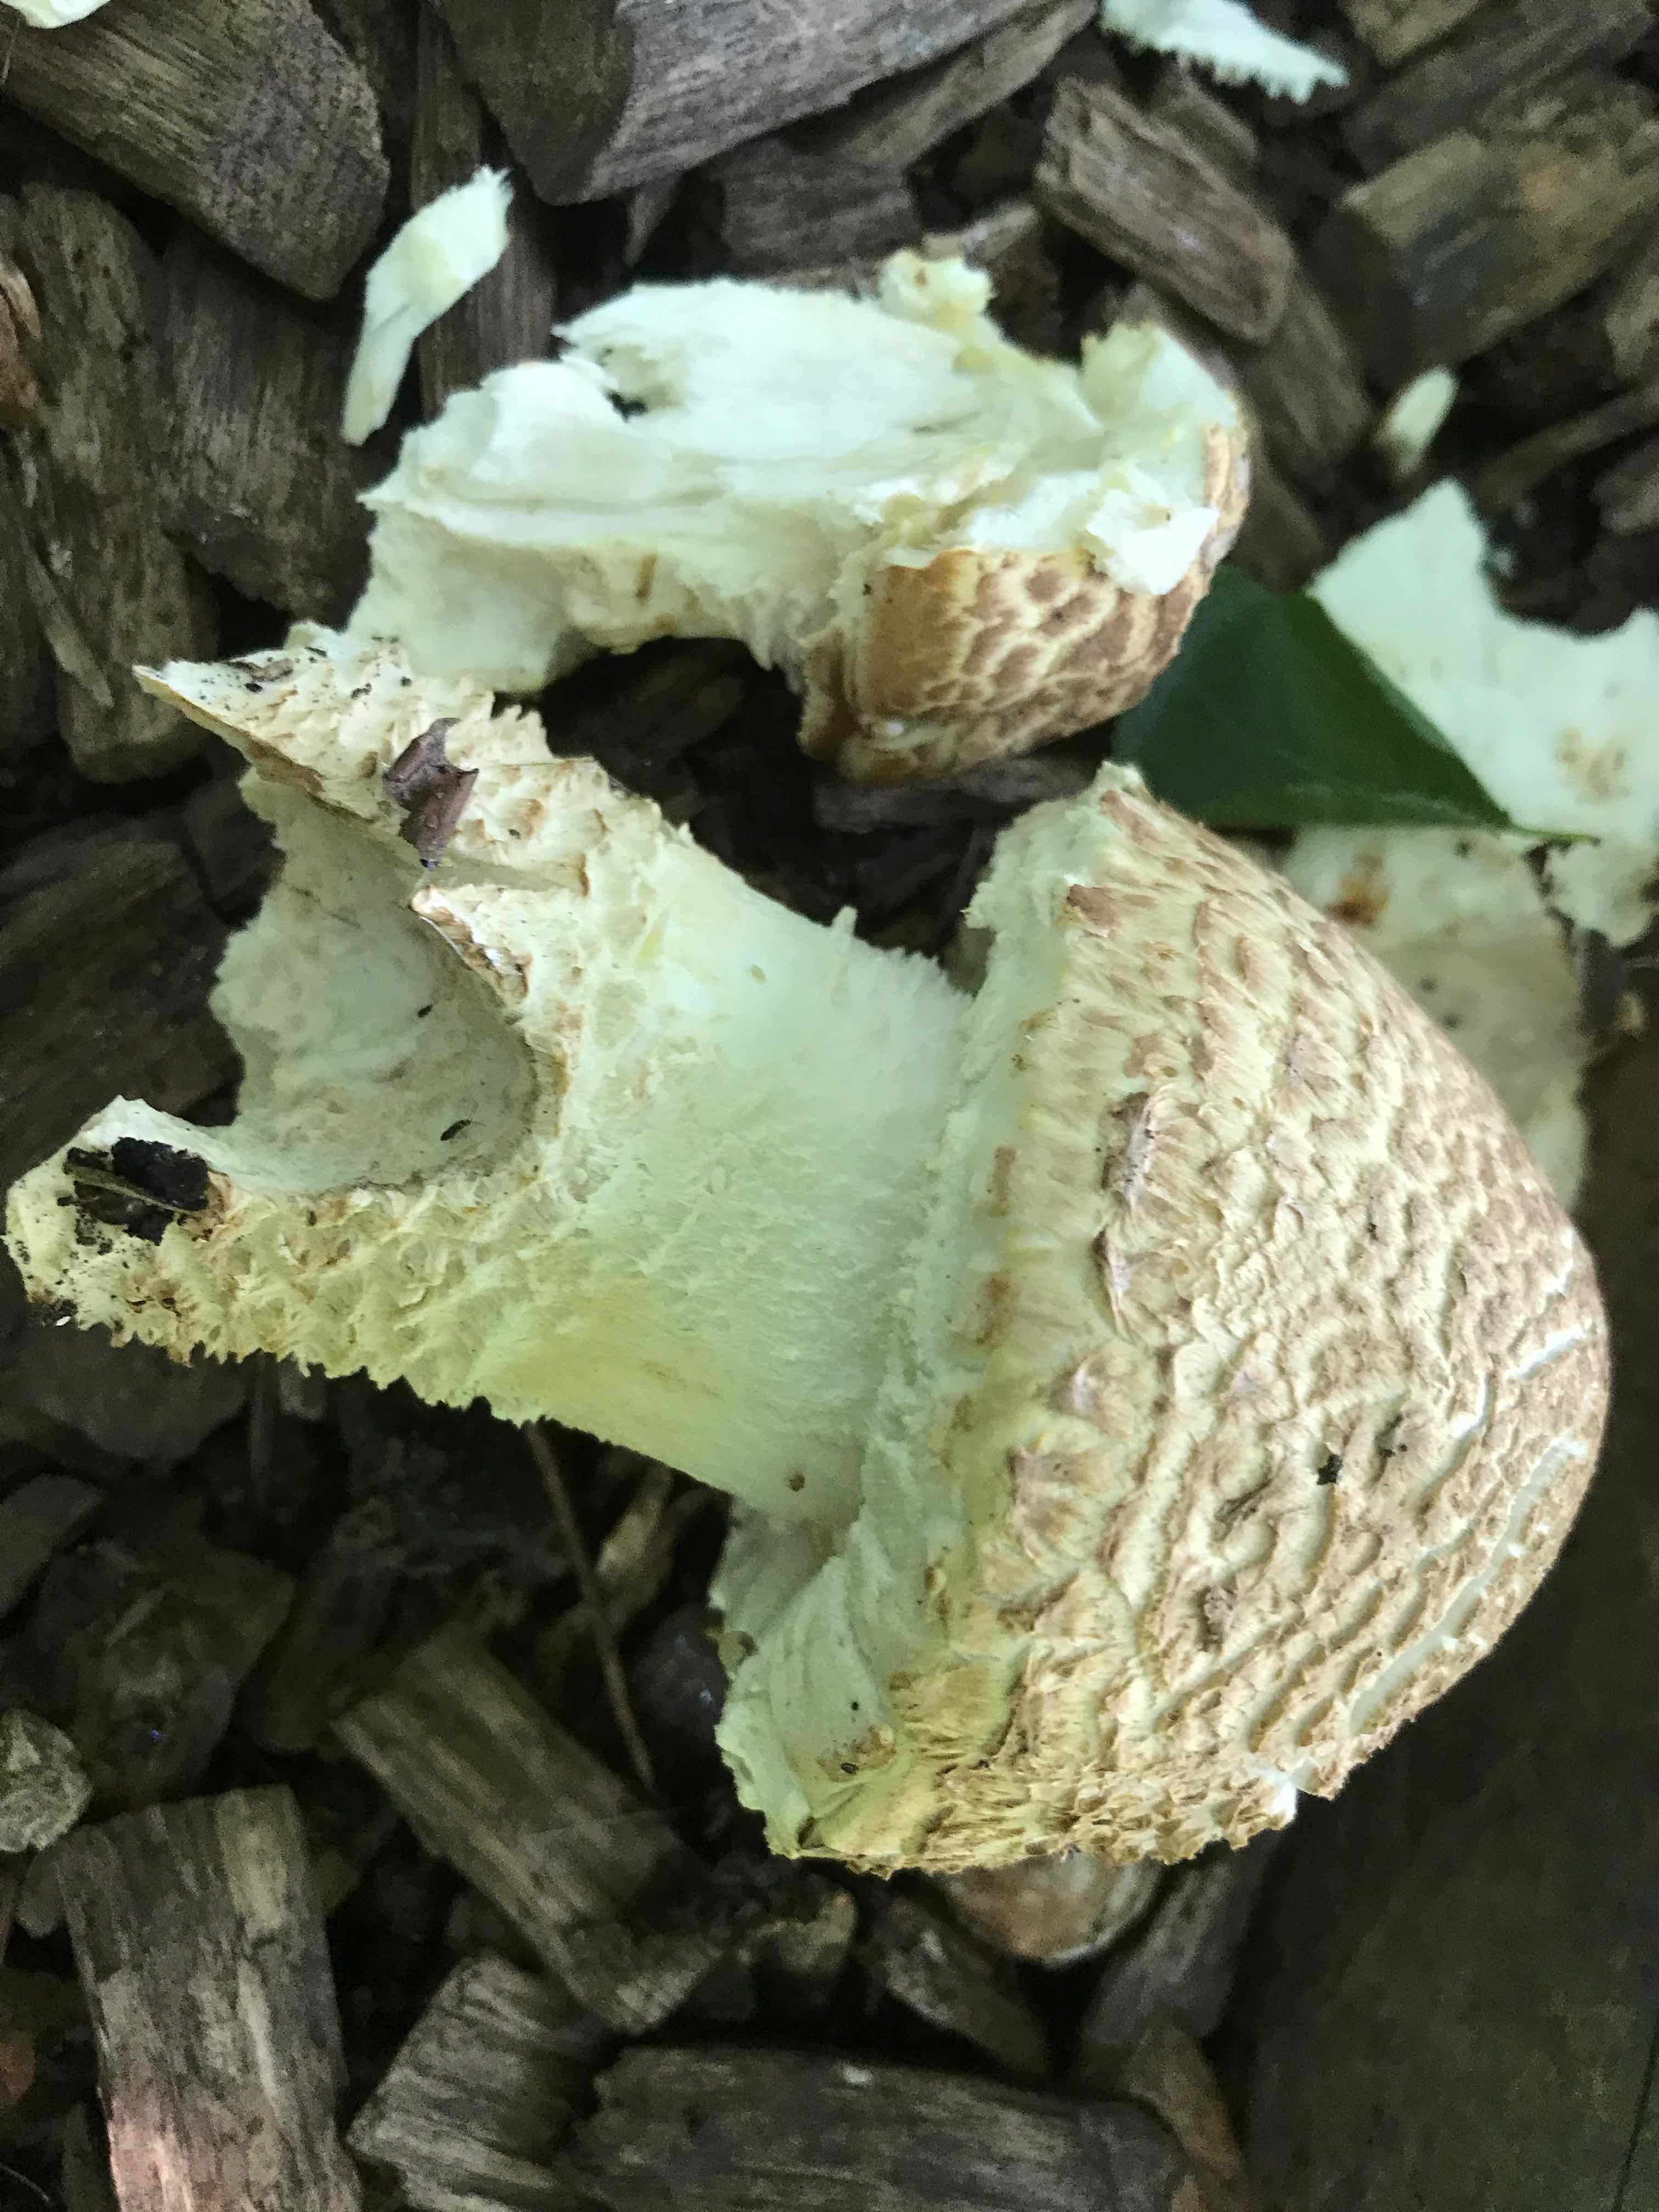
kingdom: Fungi
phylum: Basidiomycota
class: Agaricomycetes
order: Agaricales
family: Agaricaceae
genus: Agaricus
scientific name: Agaricus augustus
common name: prægtig champignon
